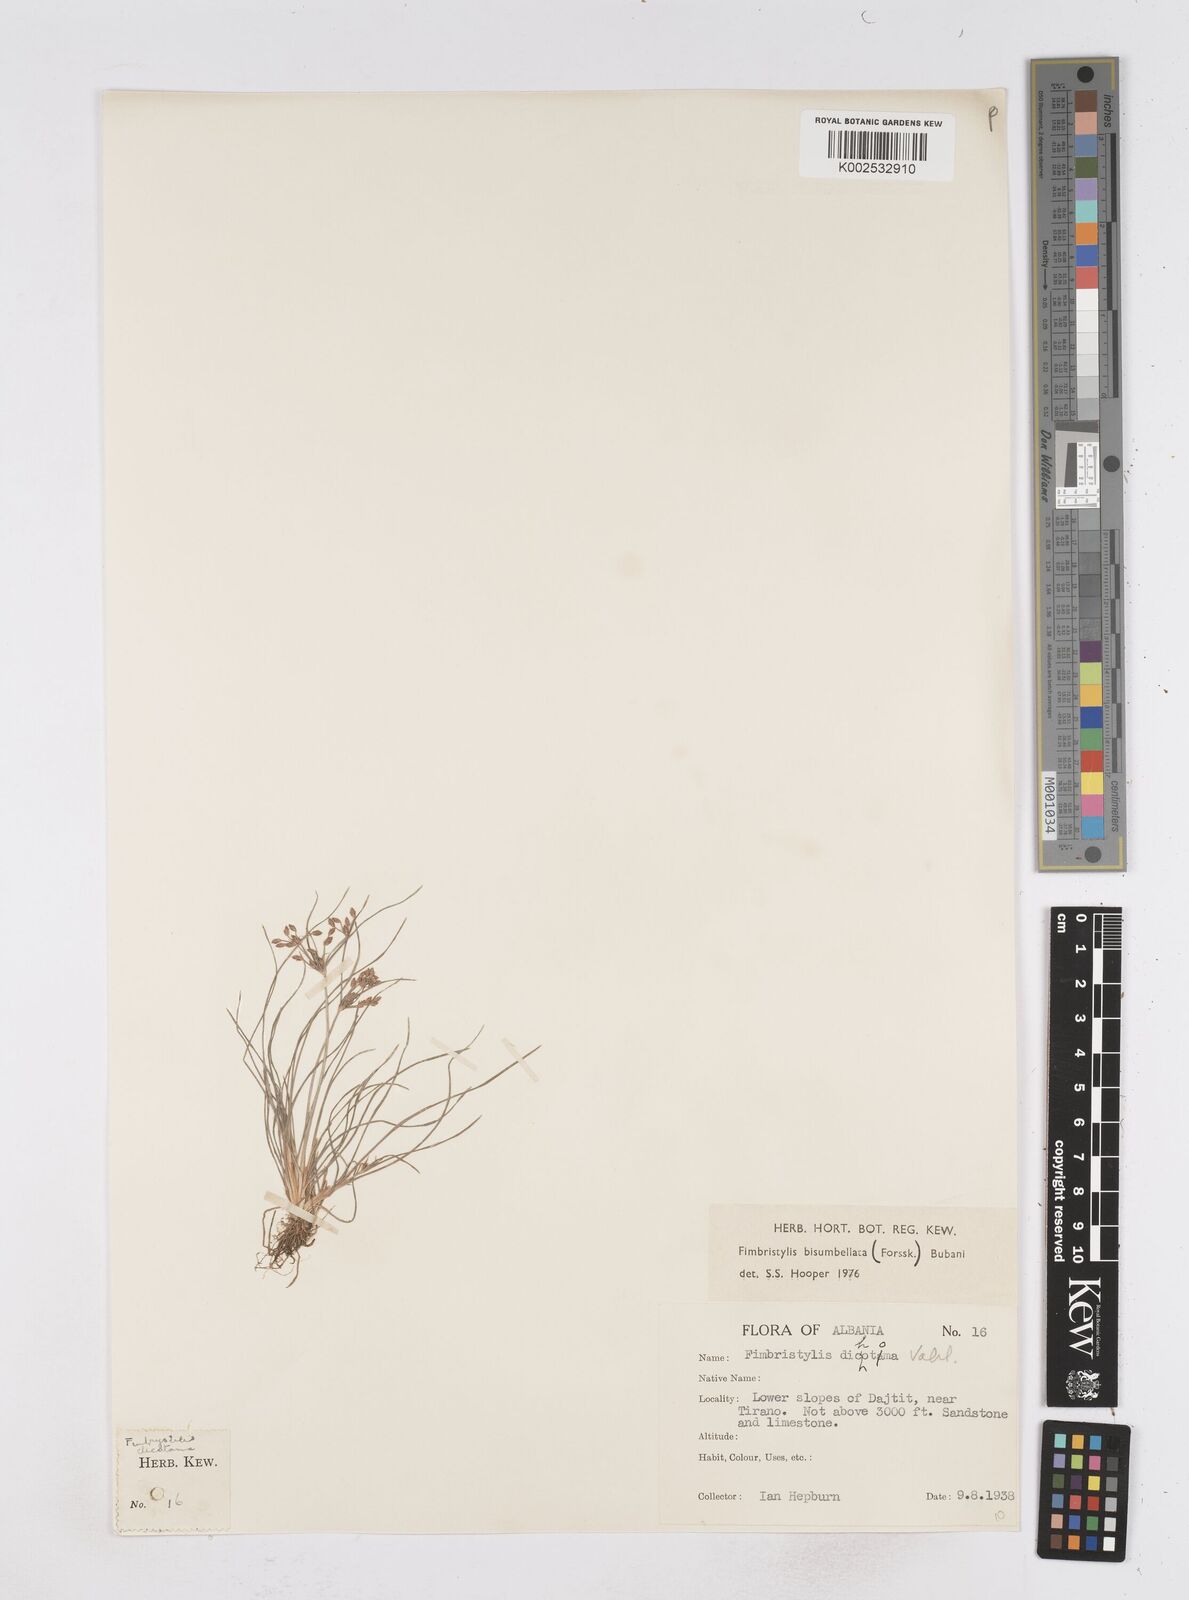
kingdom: Plantae
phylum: Tracheophyta
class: Liliopsida
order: Poales
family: Cyperaceae
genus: Fimbristylis
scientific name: Fimbristylis bisumbellata
